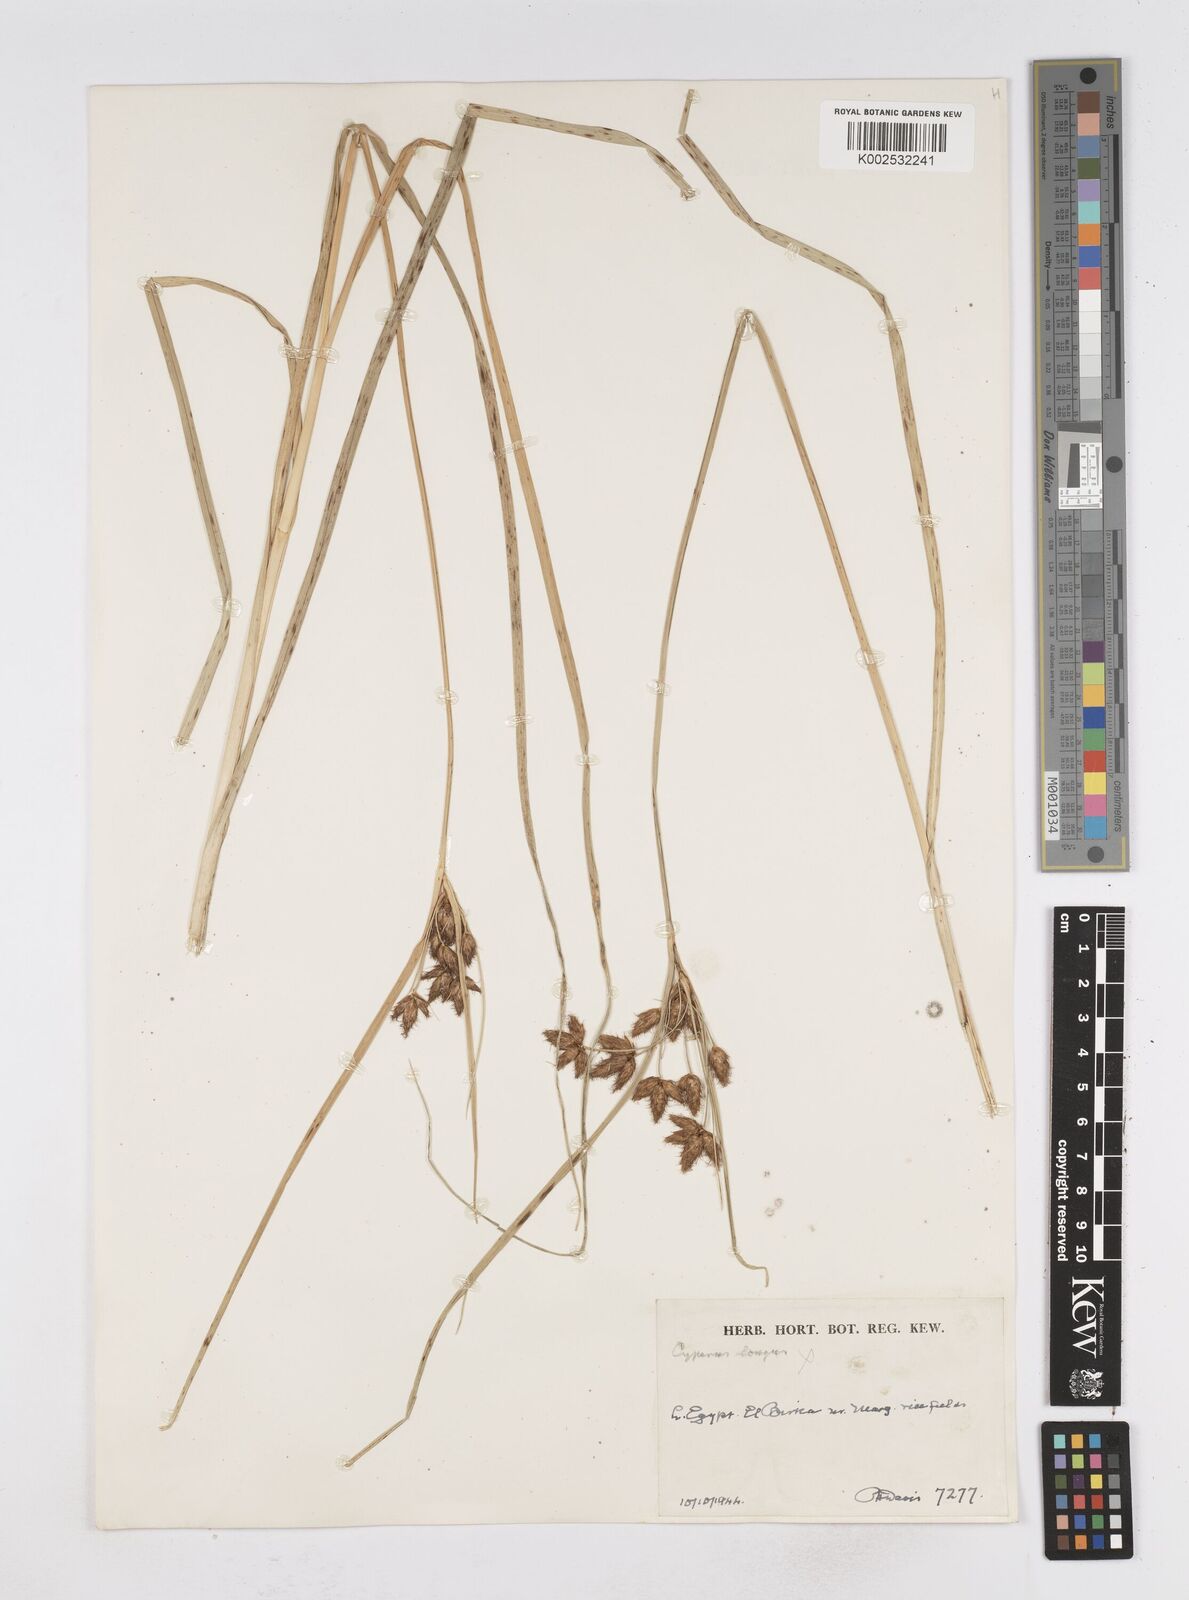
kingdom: Plantae
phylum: Tracheophyta
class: Liliopsida
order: Poales
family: Cyperaceae
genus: Bolboschoenus
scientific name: Bolboschoenus maritimus
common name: Sea club-rush
